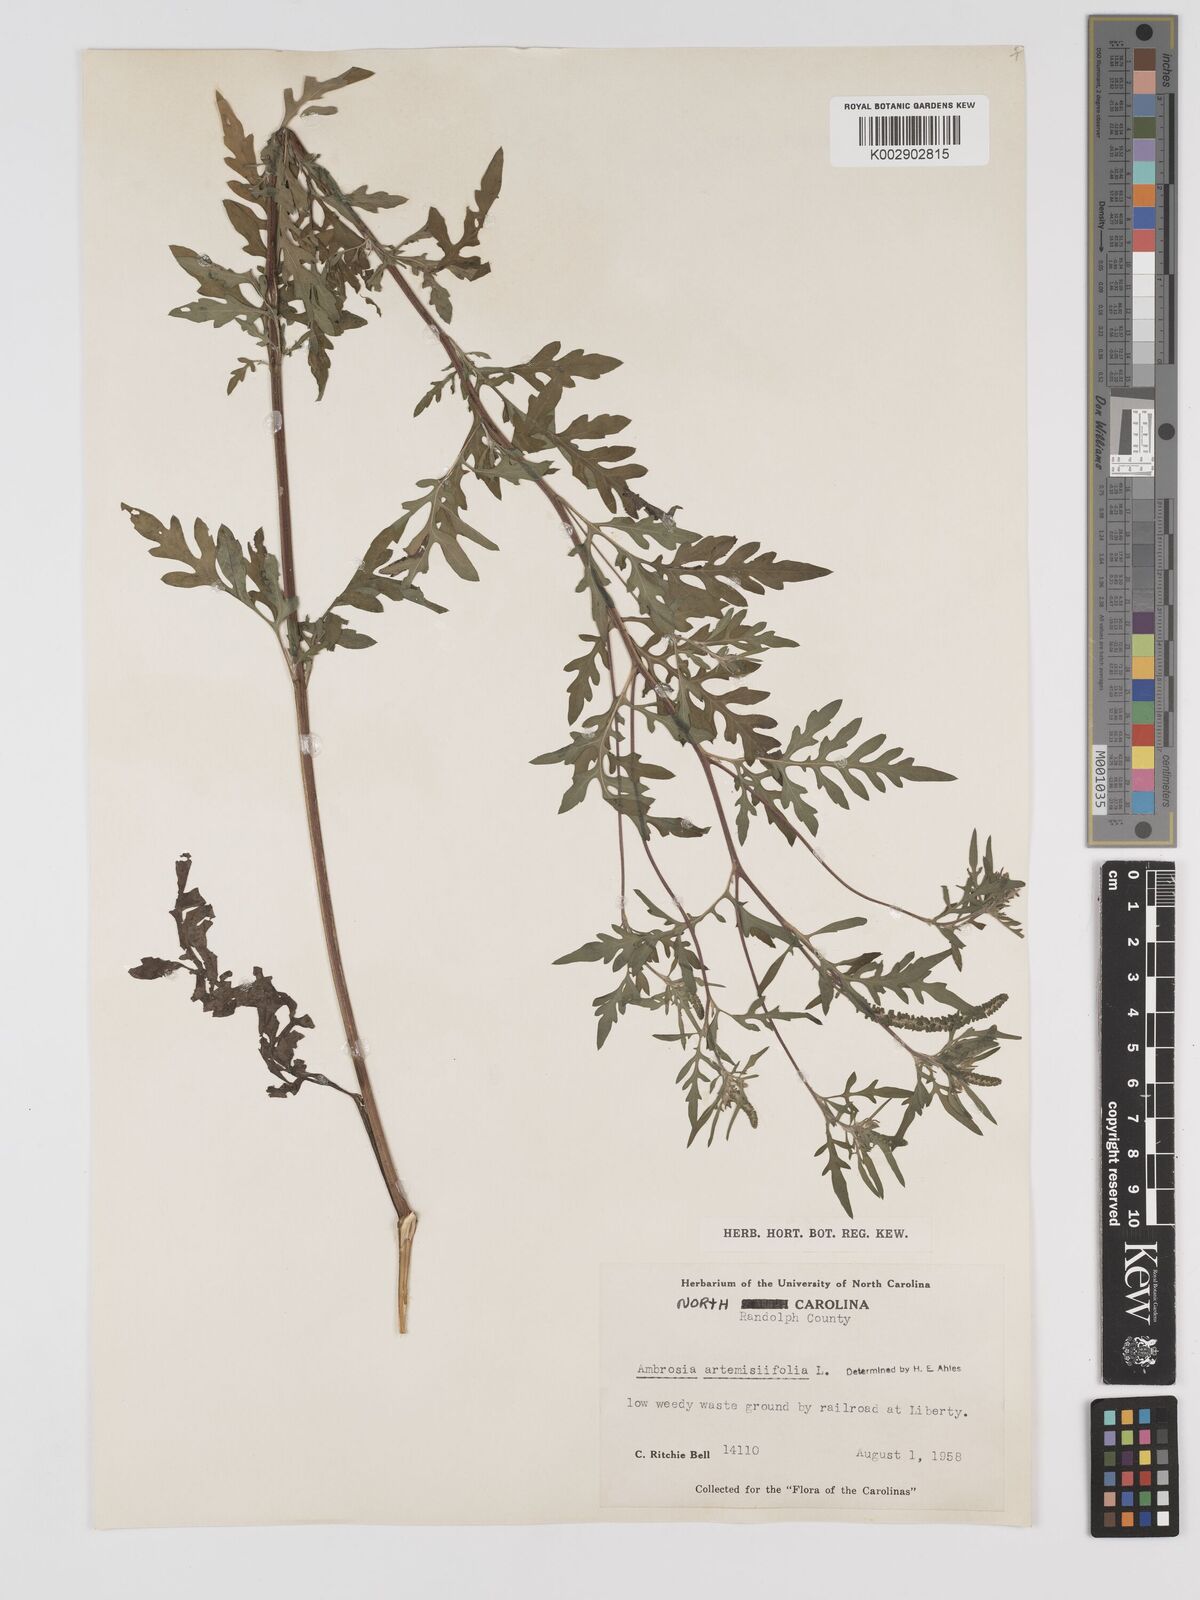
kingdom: Plantae
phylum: Tracheophyta
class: Magnoliopsida
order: Asterales
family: Asteraceae
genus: Ambrosia
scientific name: Ambrosia artemisiifolia
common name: Annual ragweed
